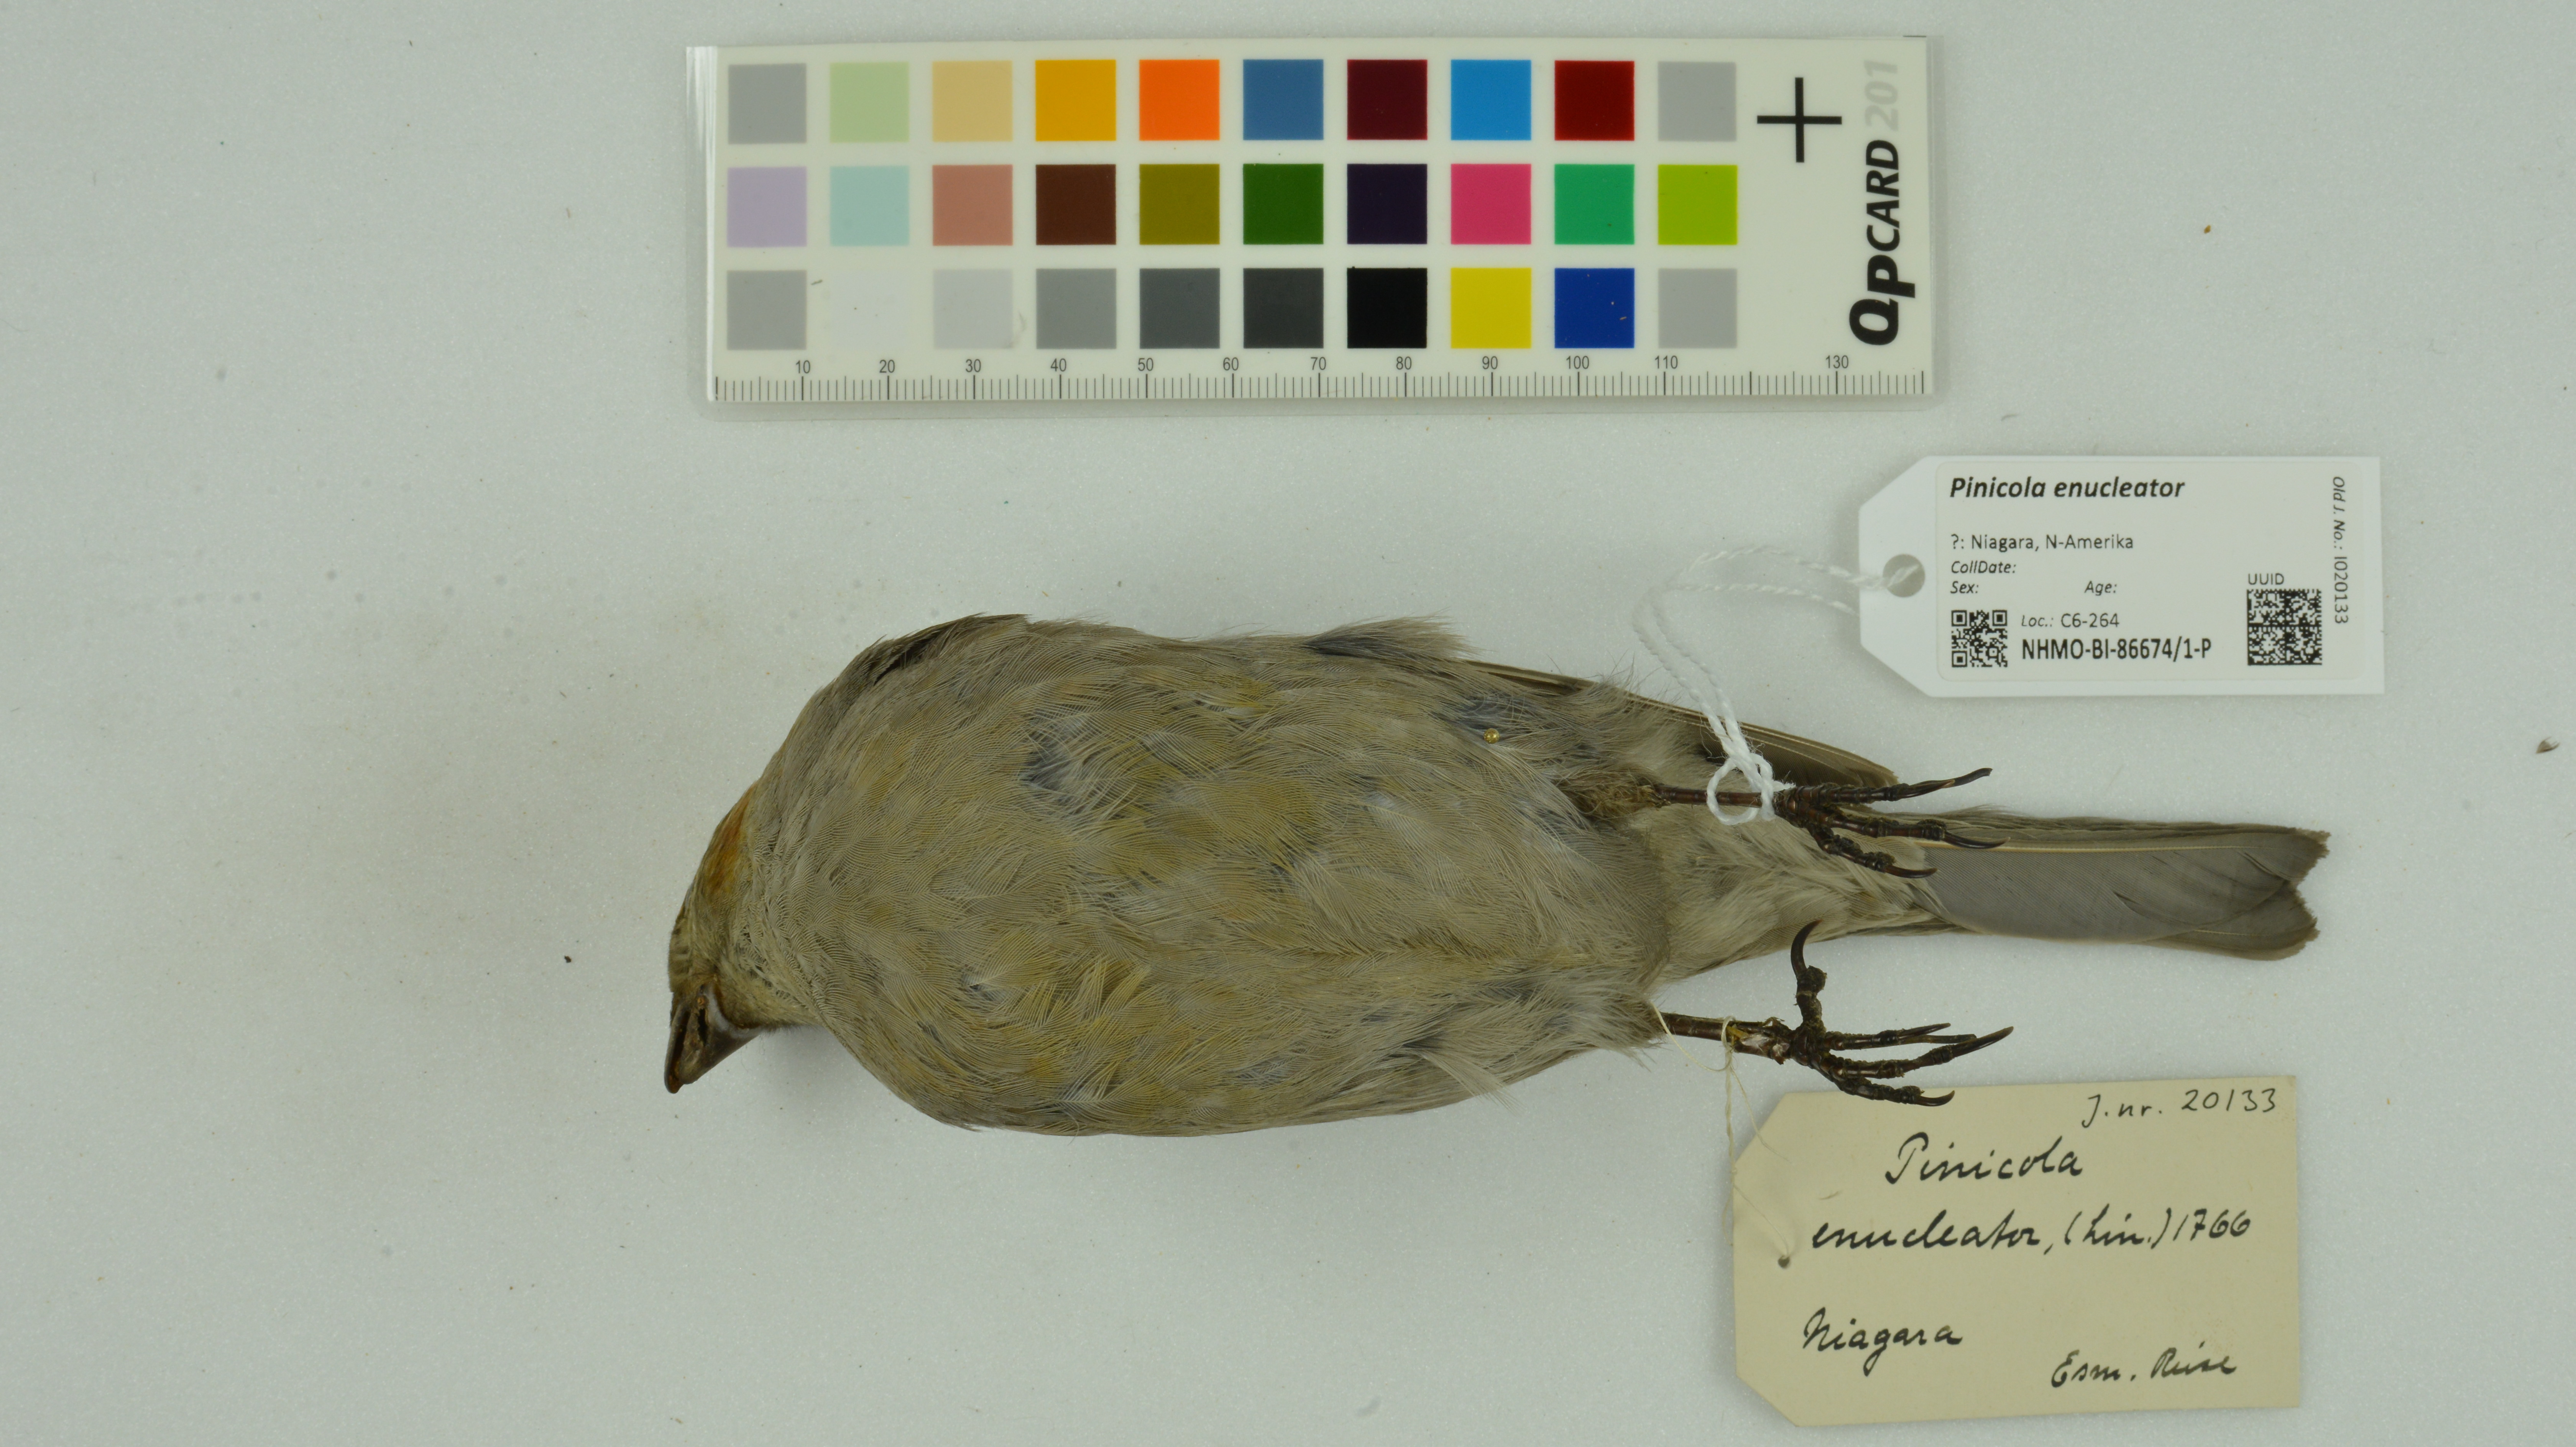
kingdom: Animalia
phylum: Chordata
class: Aves
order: Passeriformes
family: Fringillidae
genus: Pinicola
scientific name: Pinicola enucleator
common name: Pine grosbeak
